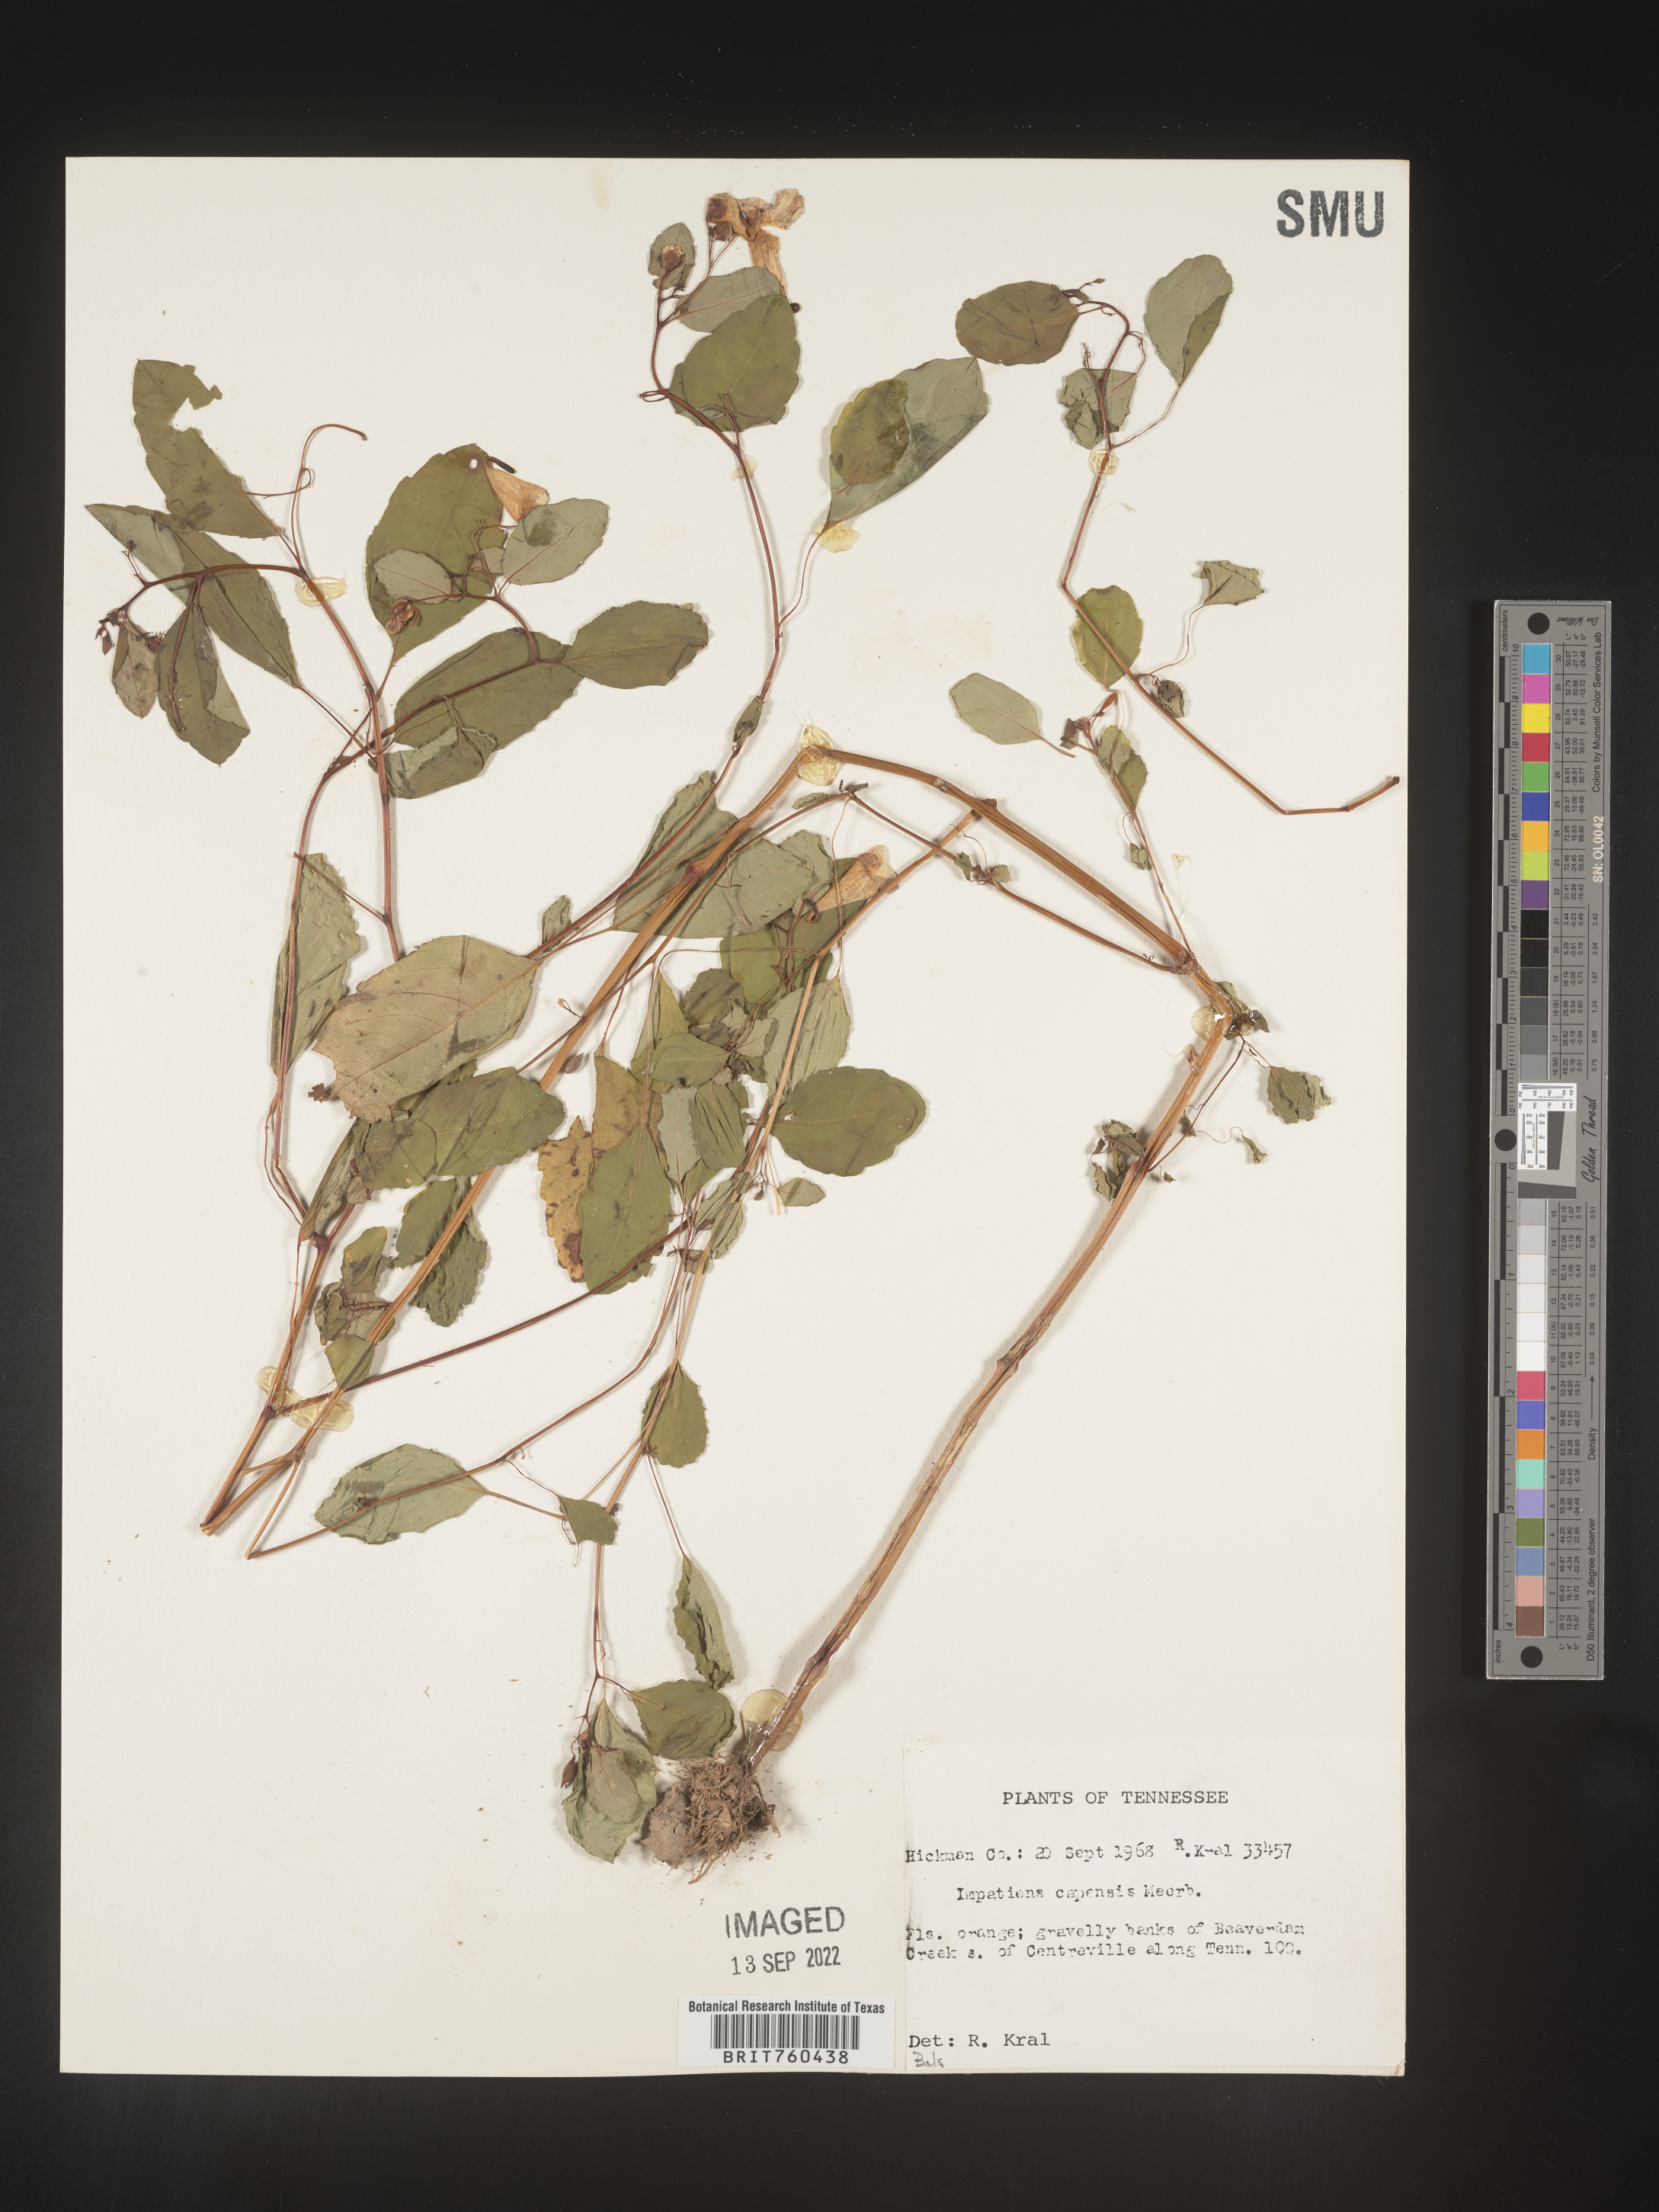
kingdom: Plantae
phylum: Tracheophyta
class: Magnoliopsida
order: Ericales
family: Balsaminaceae
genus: Impatiens
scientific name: Impatiens capensis
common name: Orange balsam
